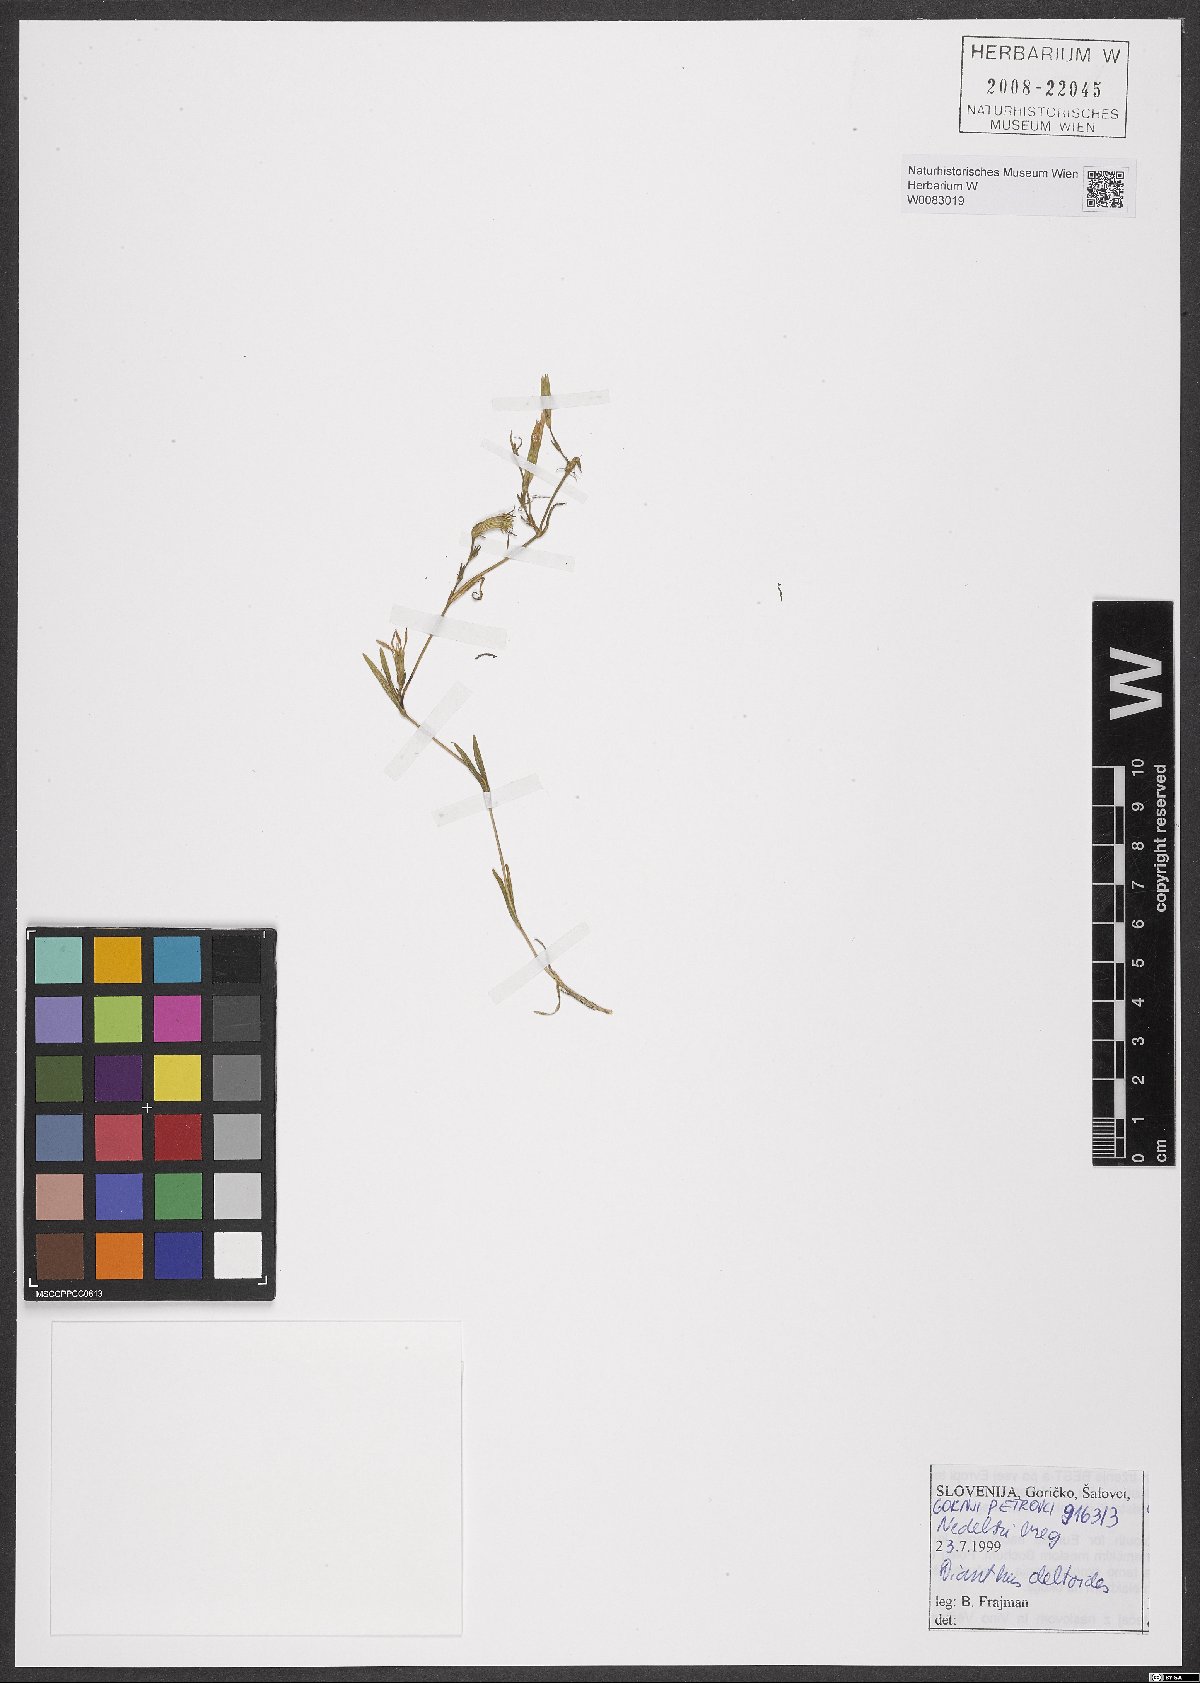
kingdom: Plantae
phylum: Tracheophyta
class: Magnoliopsida
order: Caryophyllales
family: Caryophyllaceae
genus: Dianthus
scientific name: Dianthus deltoides
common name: Maiden pink
